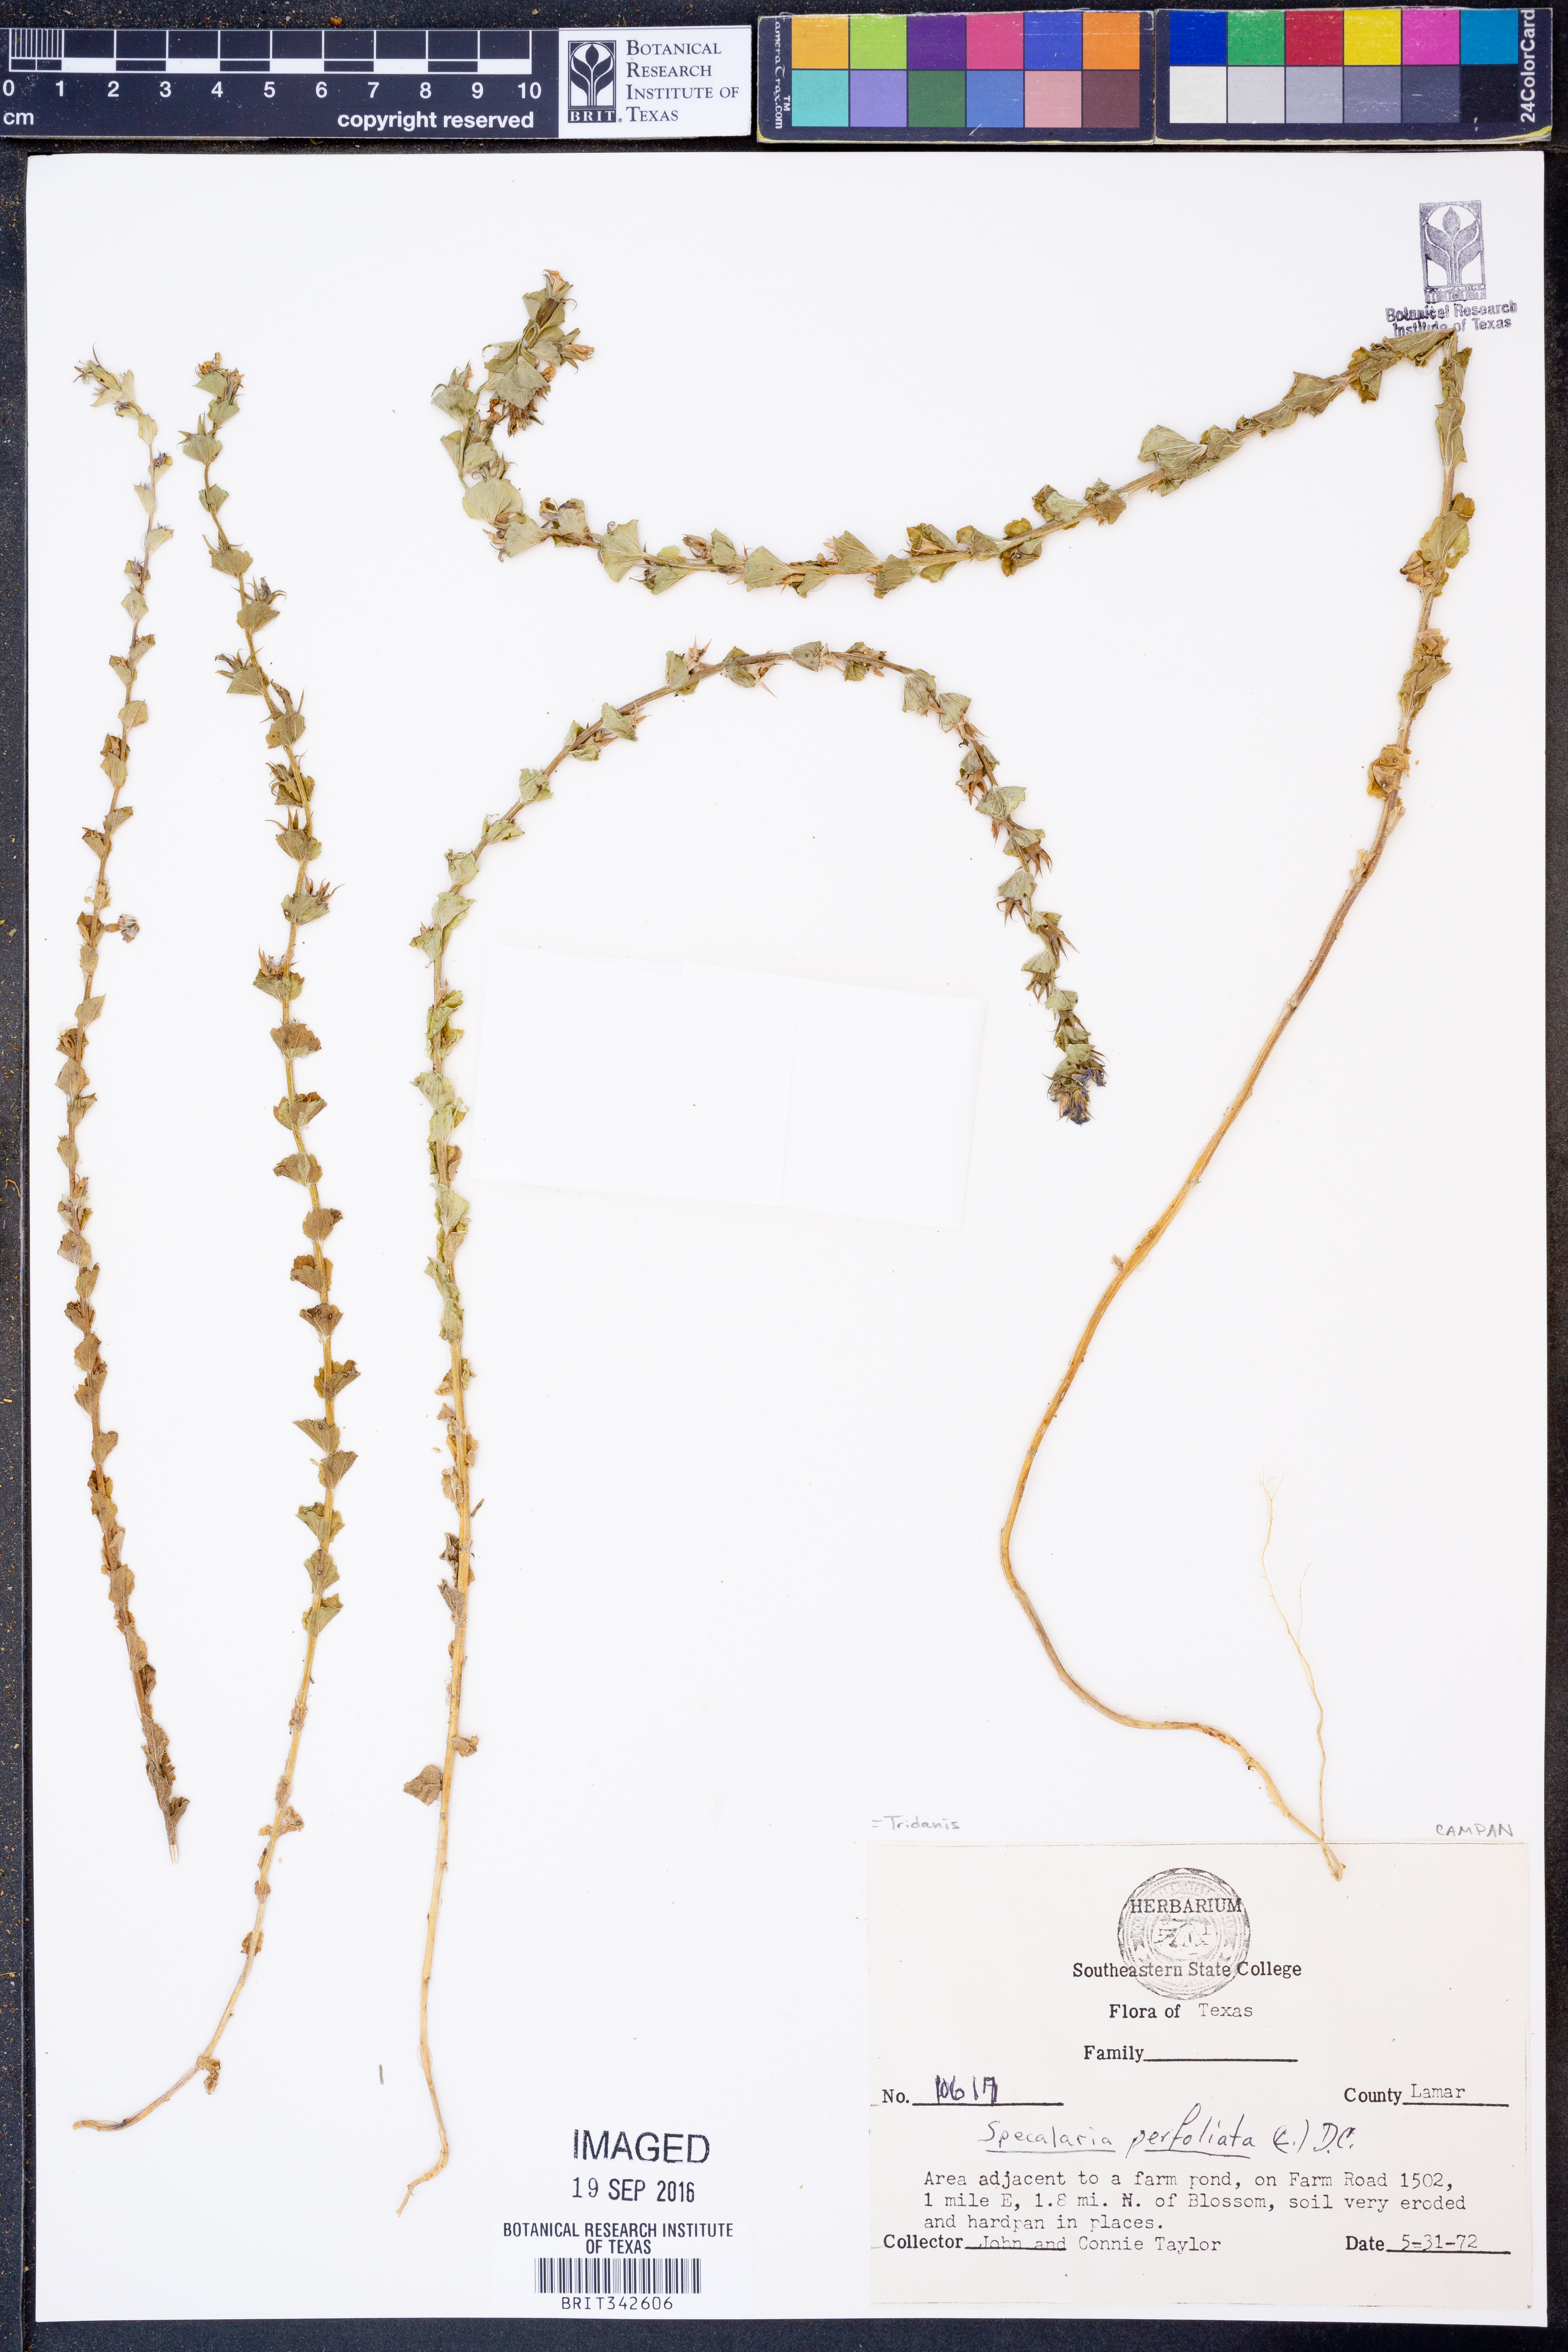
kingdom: Plantae
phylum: Tracheophyta
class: Magnoliopsida
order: Asterales
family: Campanulaceae
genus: Triodanis
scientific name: Triodanis perfoliata
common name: Clasping venus' looking-glass
